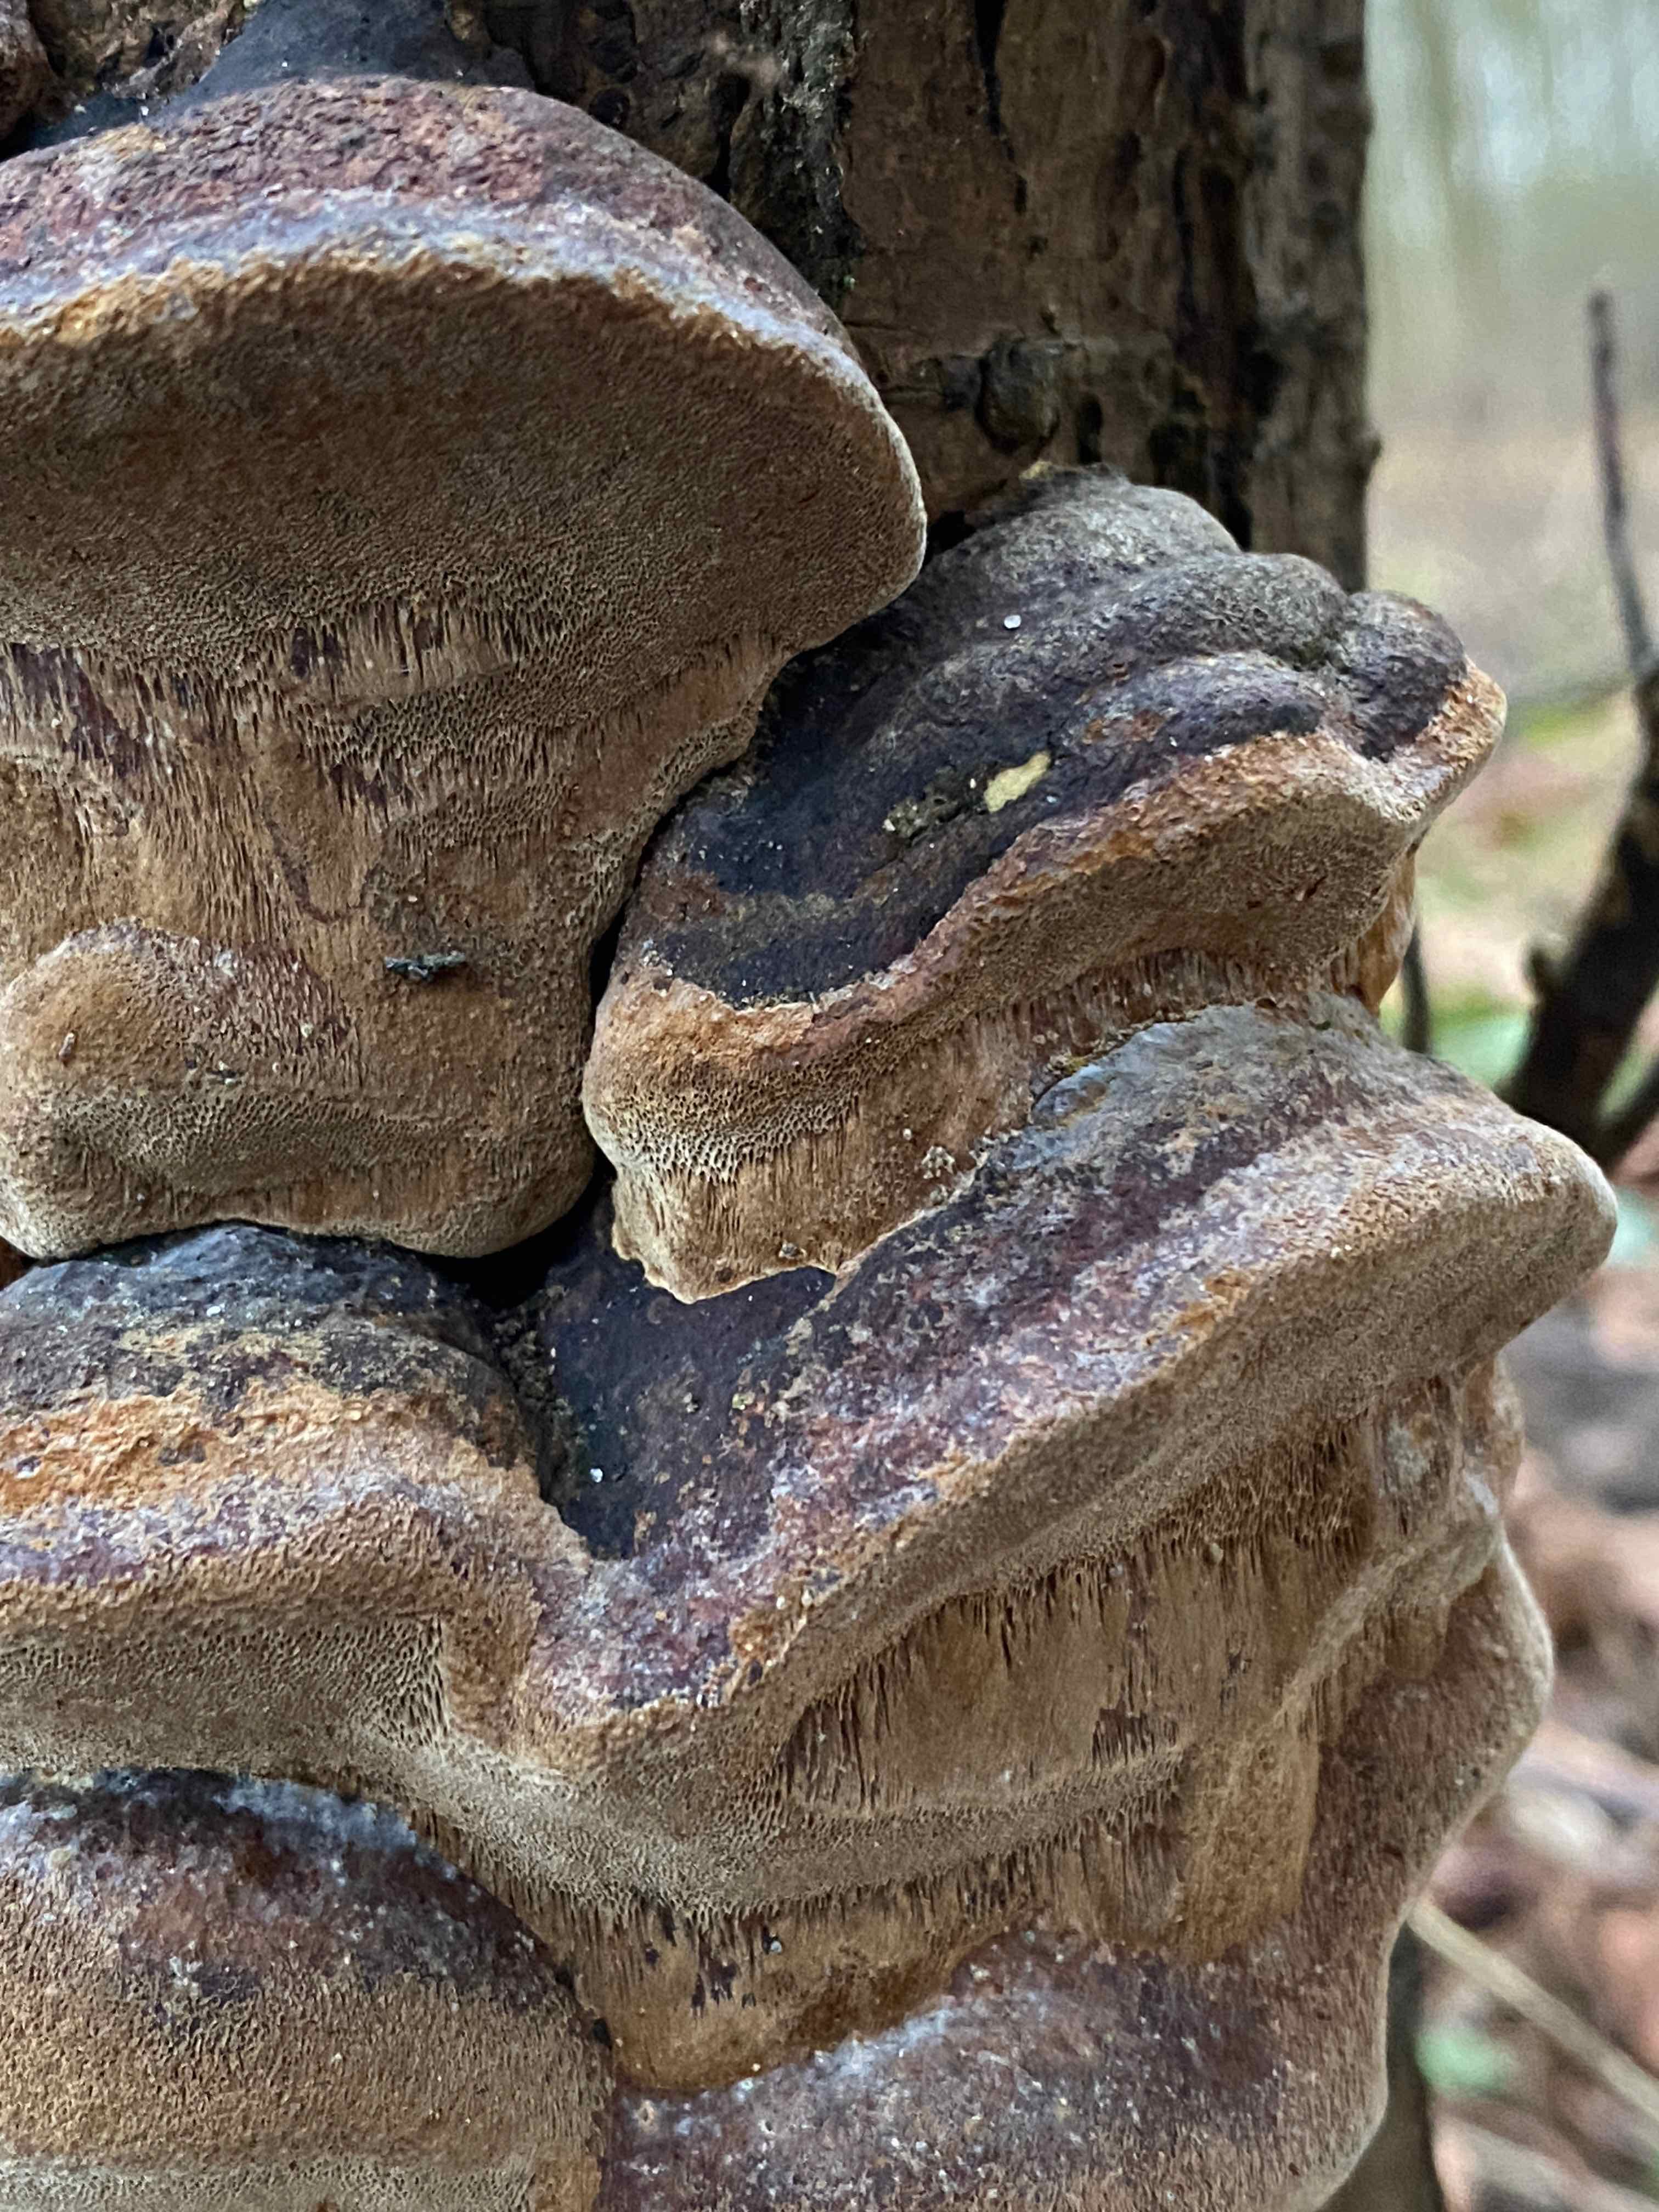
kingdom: Fungi
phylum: Basidiomycota
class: Agaricomycetes
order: Hymenochaetales
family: Hymenochaetaceae
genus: Phellinus
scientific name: Phellinus pomaceus
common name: blomme-ildporesvamp
